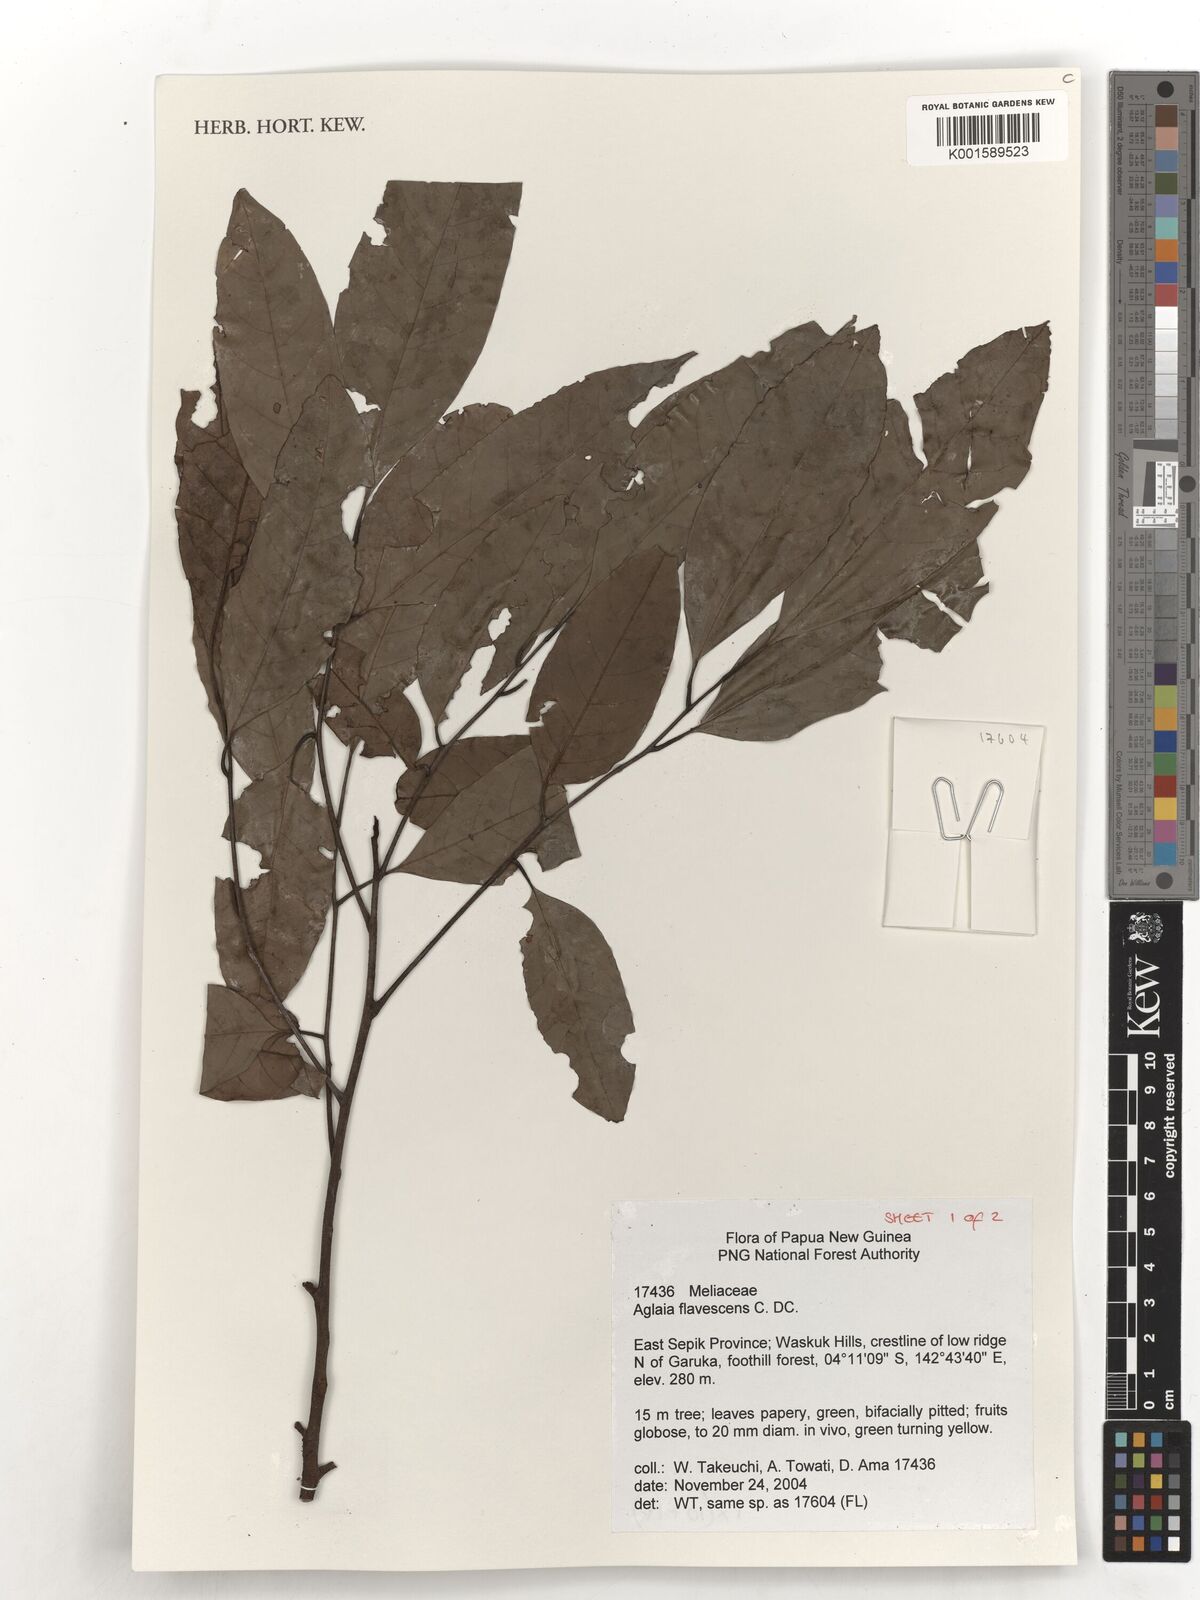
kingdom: Plantae
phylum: Tracheophyta
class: Magnoliopsida
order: Sapindales
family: Meliaceae
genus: Aglaia
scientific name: Aglaia flavescens
